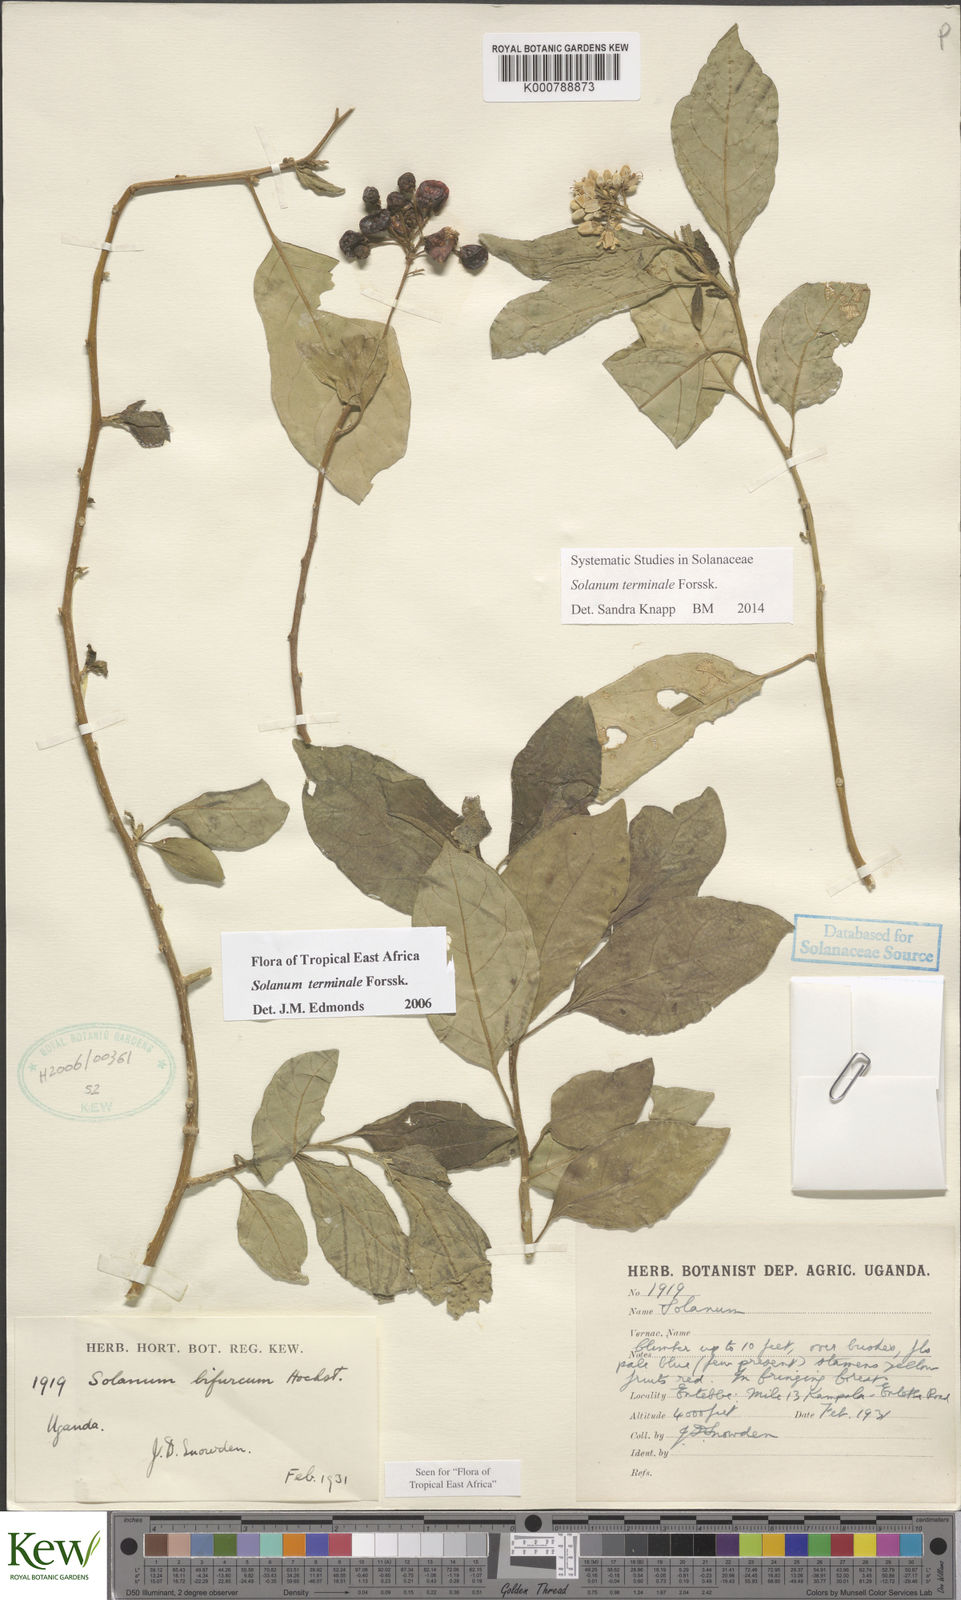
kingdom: Plantae
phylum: Tracheophyta
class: Magnoliopsida
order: Solanales
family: Solanaceae
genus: Solanum
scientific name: Solanum terminale
